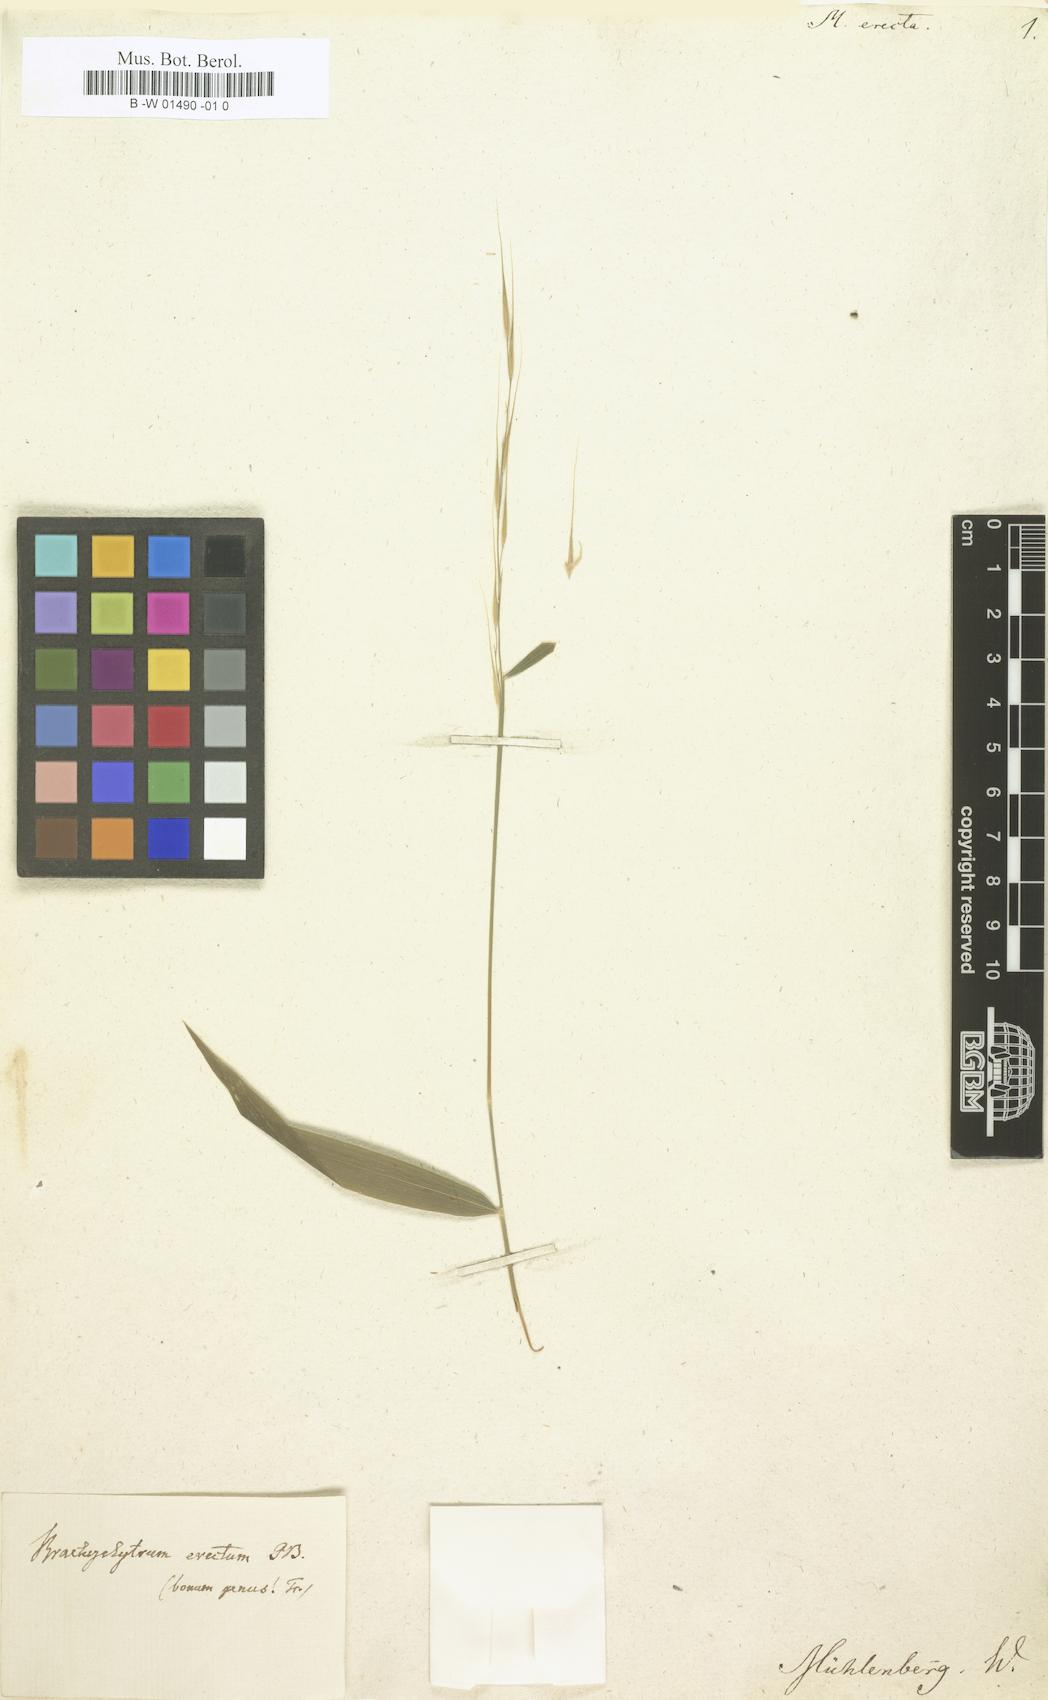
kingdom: Plantae
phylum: Tracheophyta
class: Liliopsida
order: Poales
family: Poaceae
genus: Muehlenbergia
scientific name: Muehlenbergia
